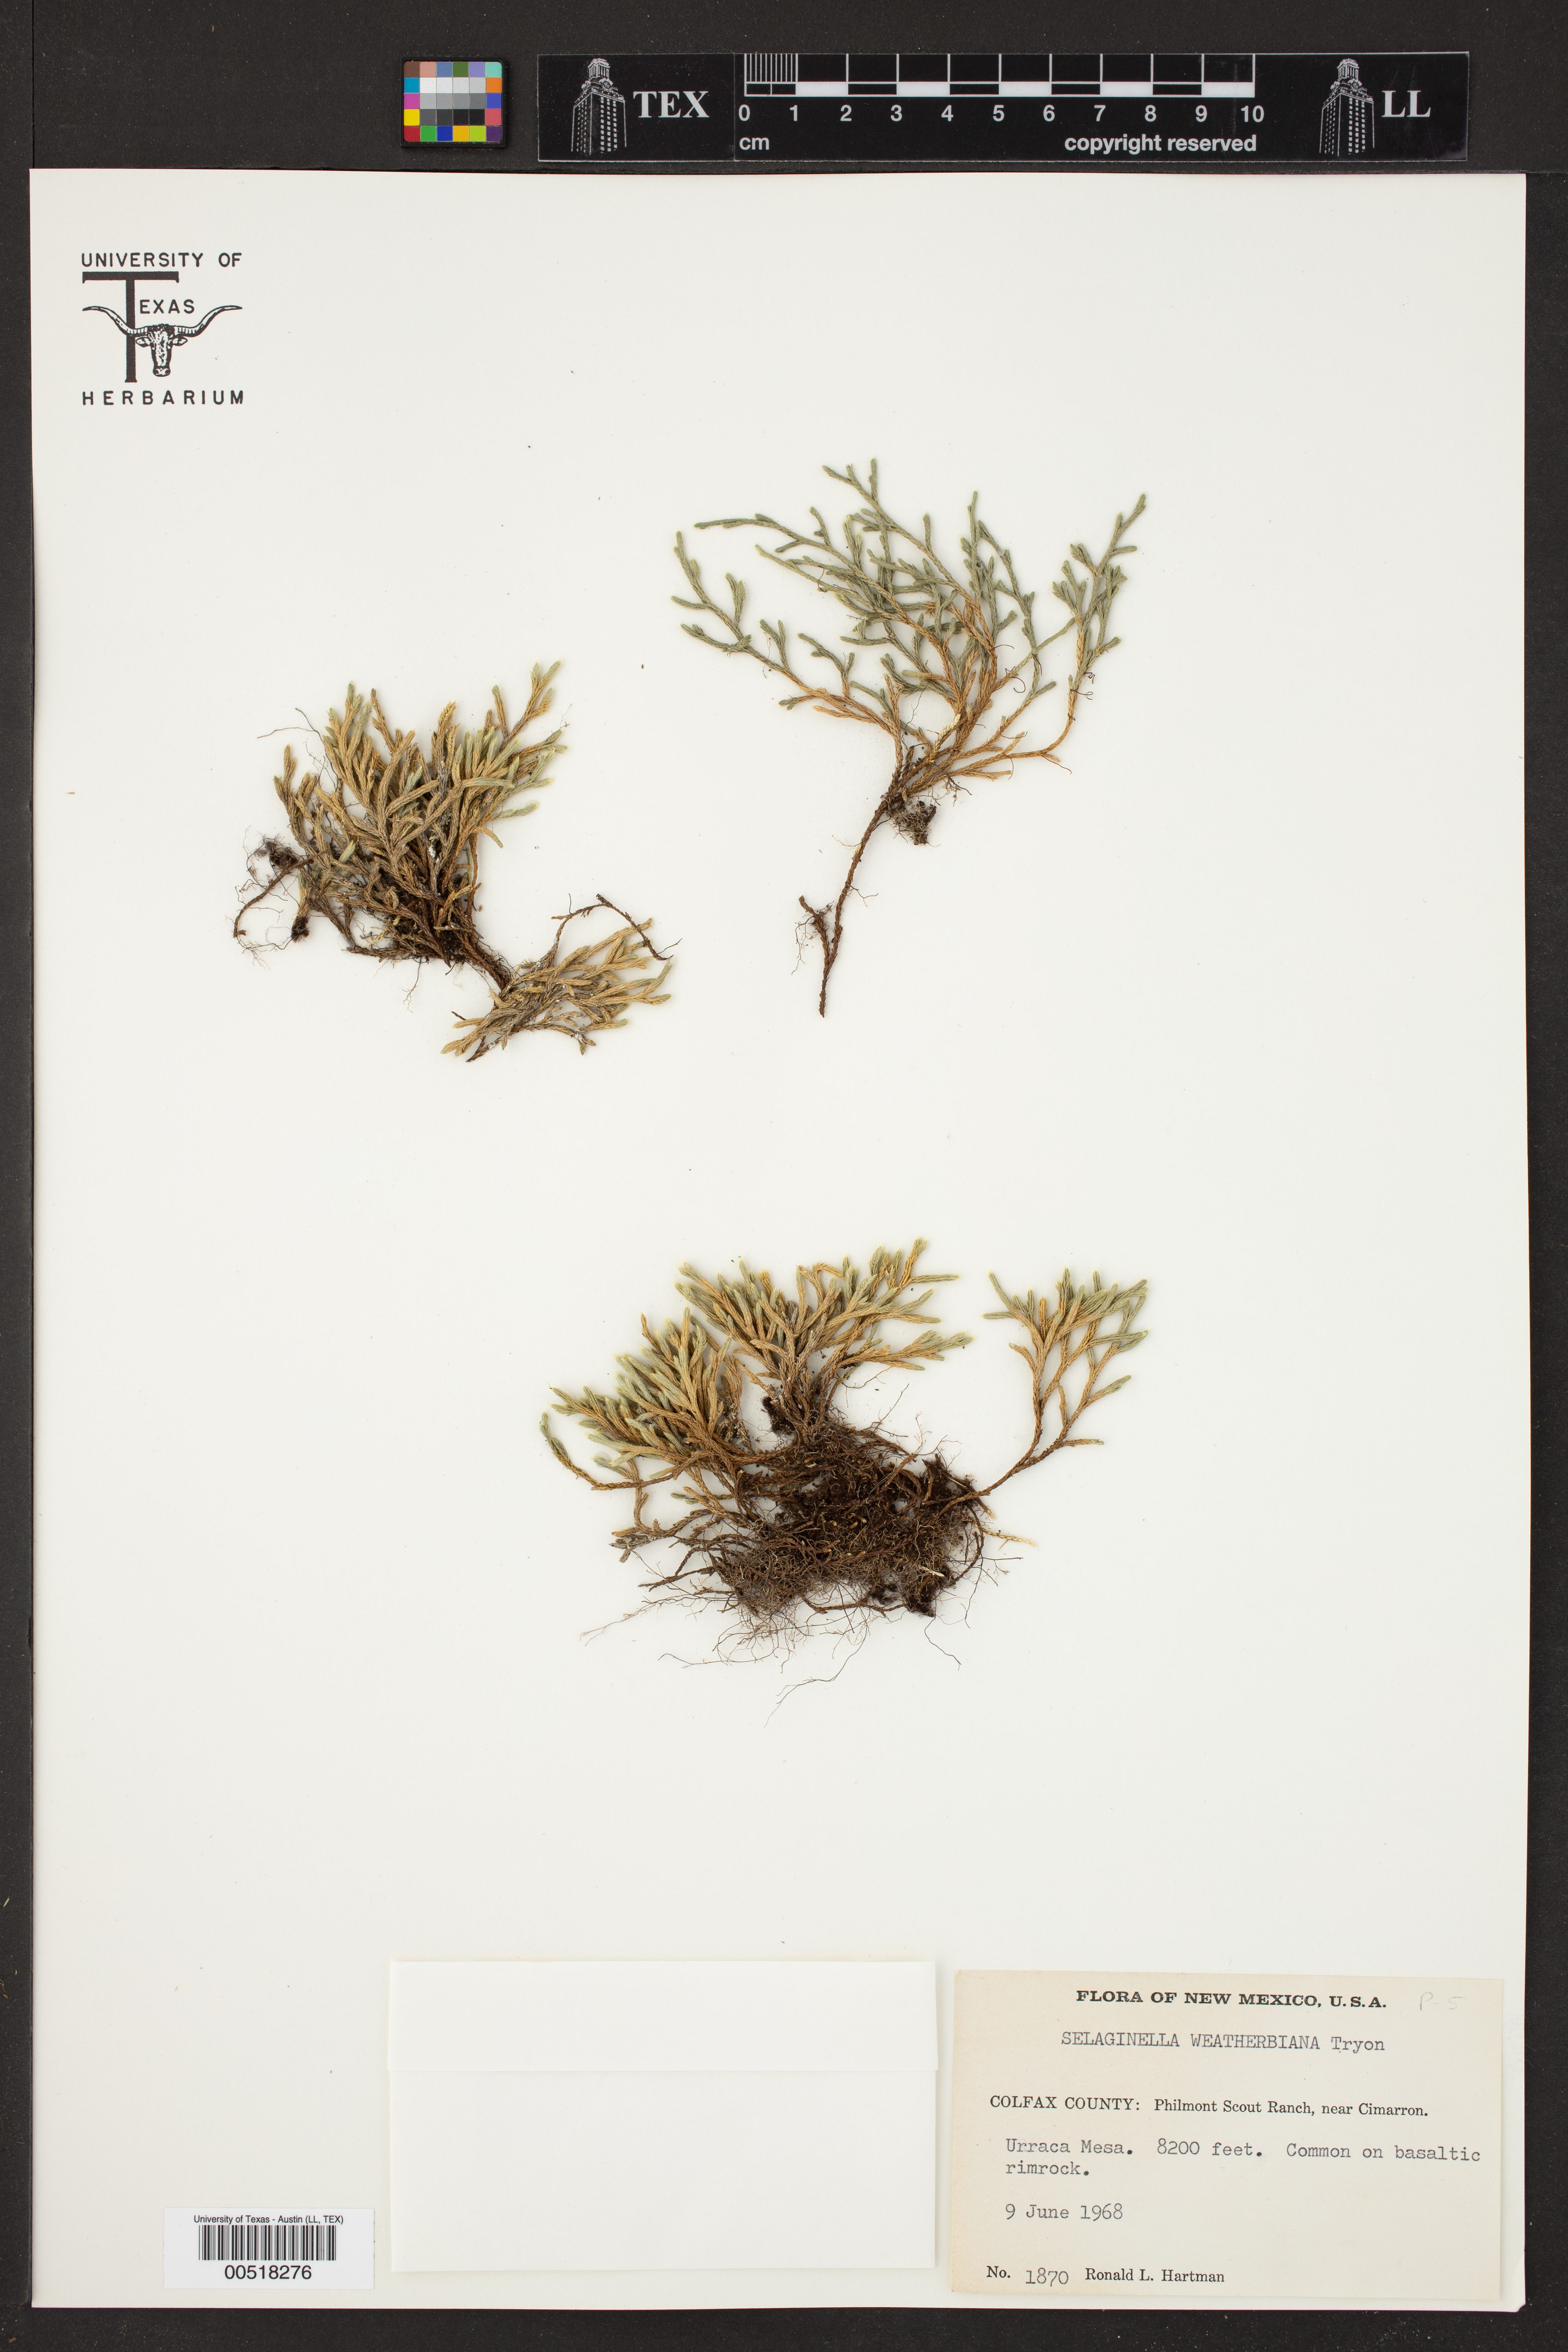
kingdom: Plantae
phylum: Tracheophyta
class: Lycopodiopsida
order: Selaginellales
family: Selaginellaceae
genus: Selaginella
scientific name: Selaginella weatherbiana
